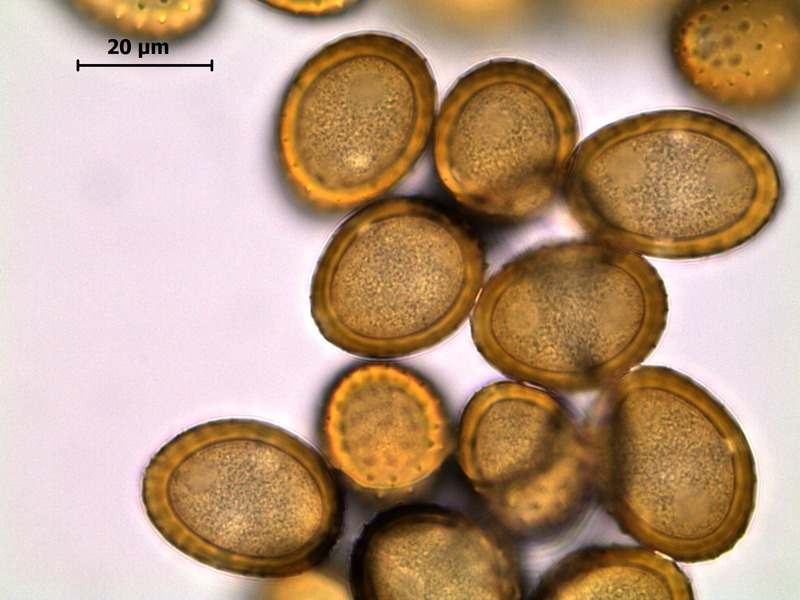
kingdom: Fungi
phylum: Basidiomycota
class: Pucciniomycetes
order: Pucciniales
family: Pucciniaceae
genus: Puccinia
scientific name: Puccinia phragmitis
